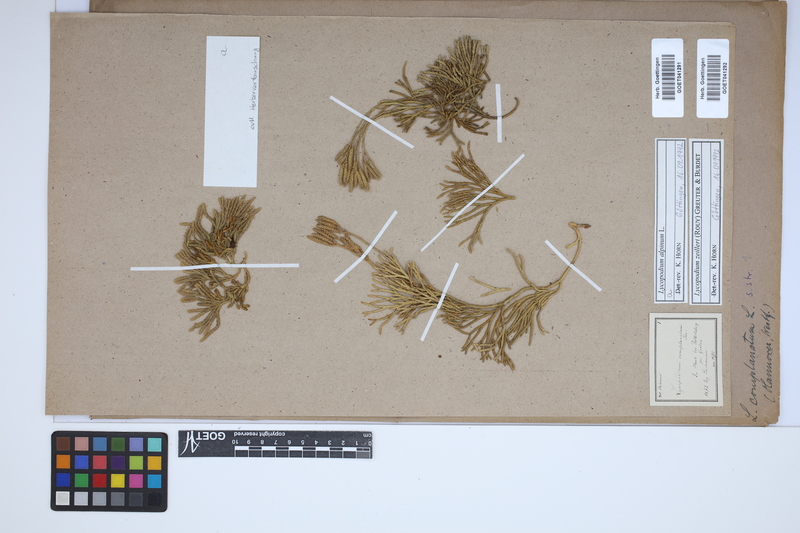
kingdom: Plantae
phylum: Tracheophyta
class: Lycopodiopsida
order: Lycopodiales
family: Lycopodiaceae
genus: Diphasiastrum
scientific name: Diphasiastrum alpinum
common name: Alpine clubmoss
